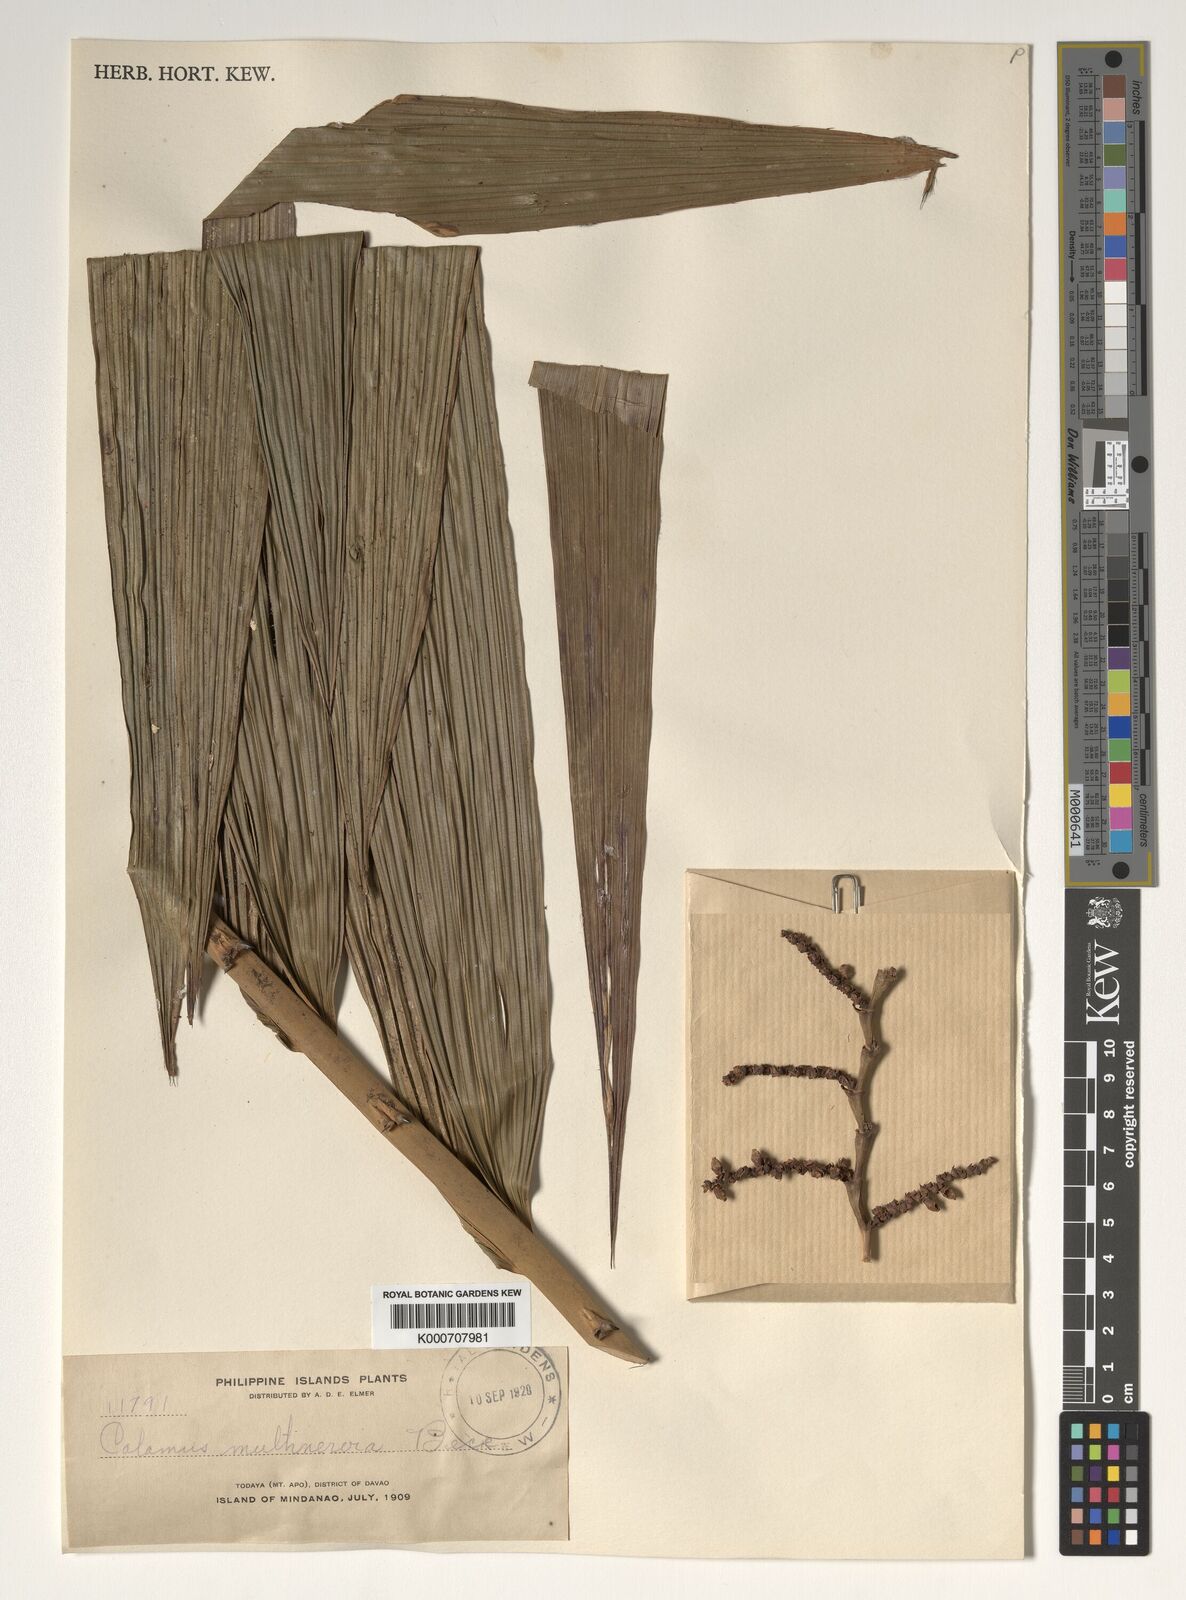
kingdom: Plantae
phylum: Tracheophyta
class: Liliopsida
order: Arecales
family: Arecaceae
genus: Calamus
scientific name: Calamus moseleyanus
